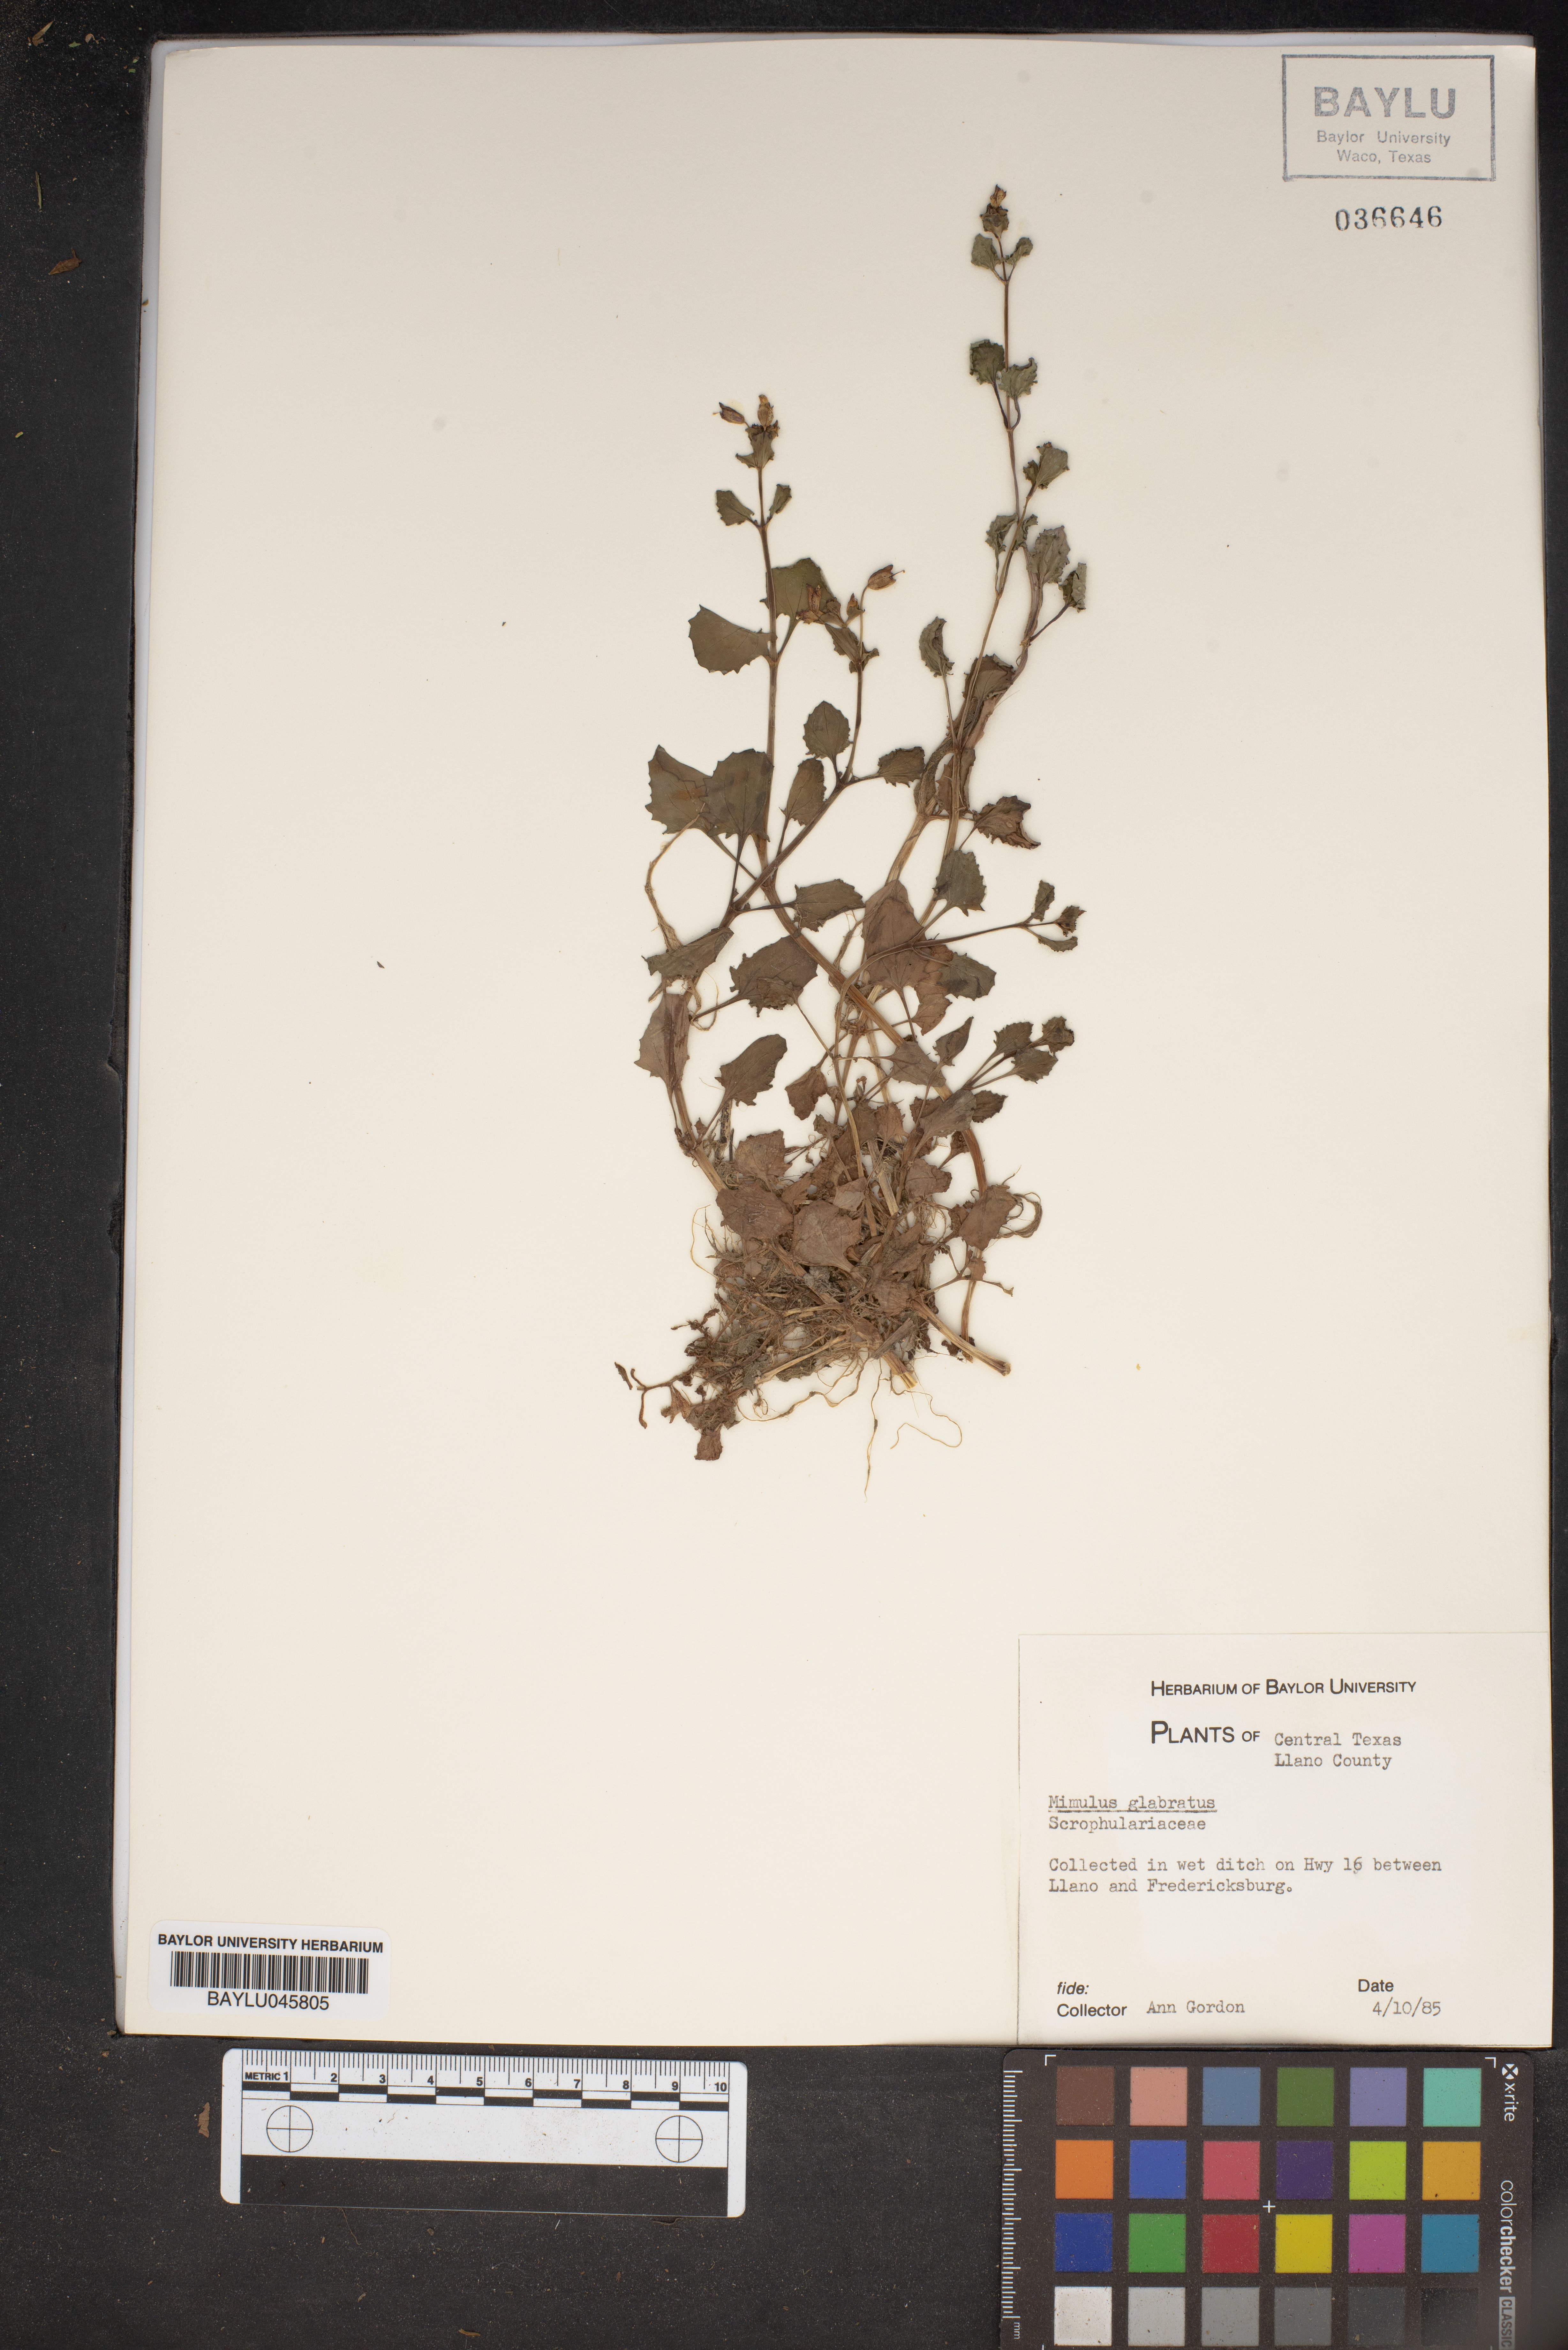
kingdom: Plantae
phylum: Tracheophyta
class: Magnoliopsida
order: Lamiales
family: Phrymaceae
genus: Erythranthe
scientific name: Erythranthe glabrata
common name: Round-leaved monkeyflower
